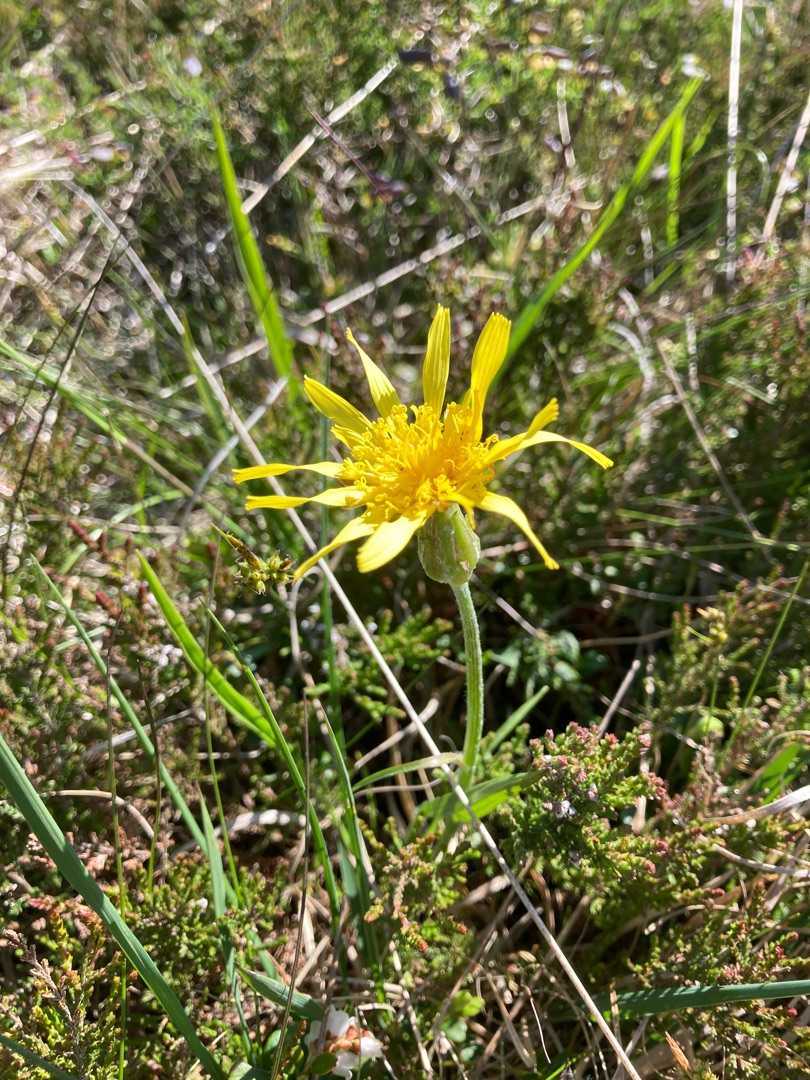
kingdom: Plantae
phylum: Tracheophyta
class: Magnoliopsida
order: Asterales
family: Asteraceae
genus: Scorzonera
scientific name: Scorzonera humilis
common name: Lav skorsoner
